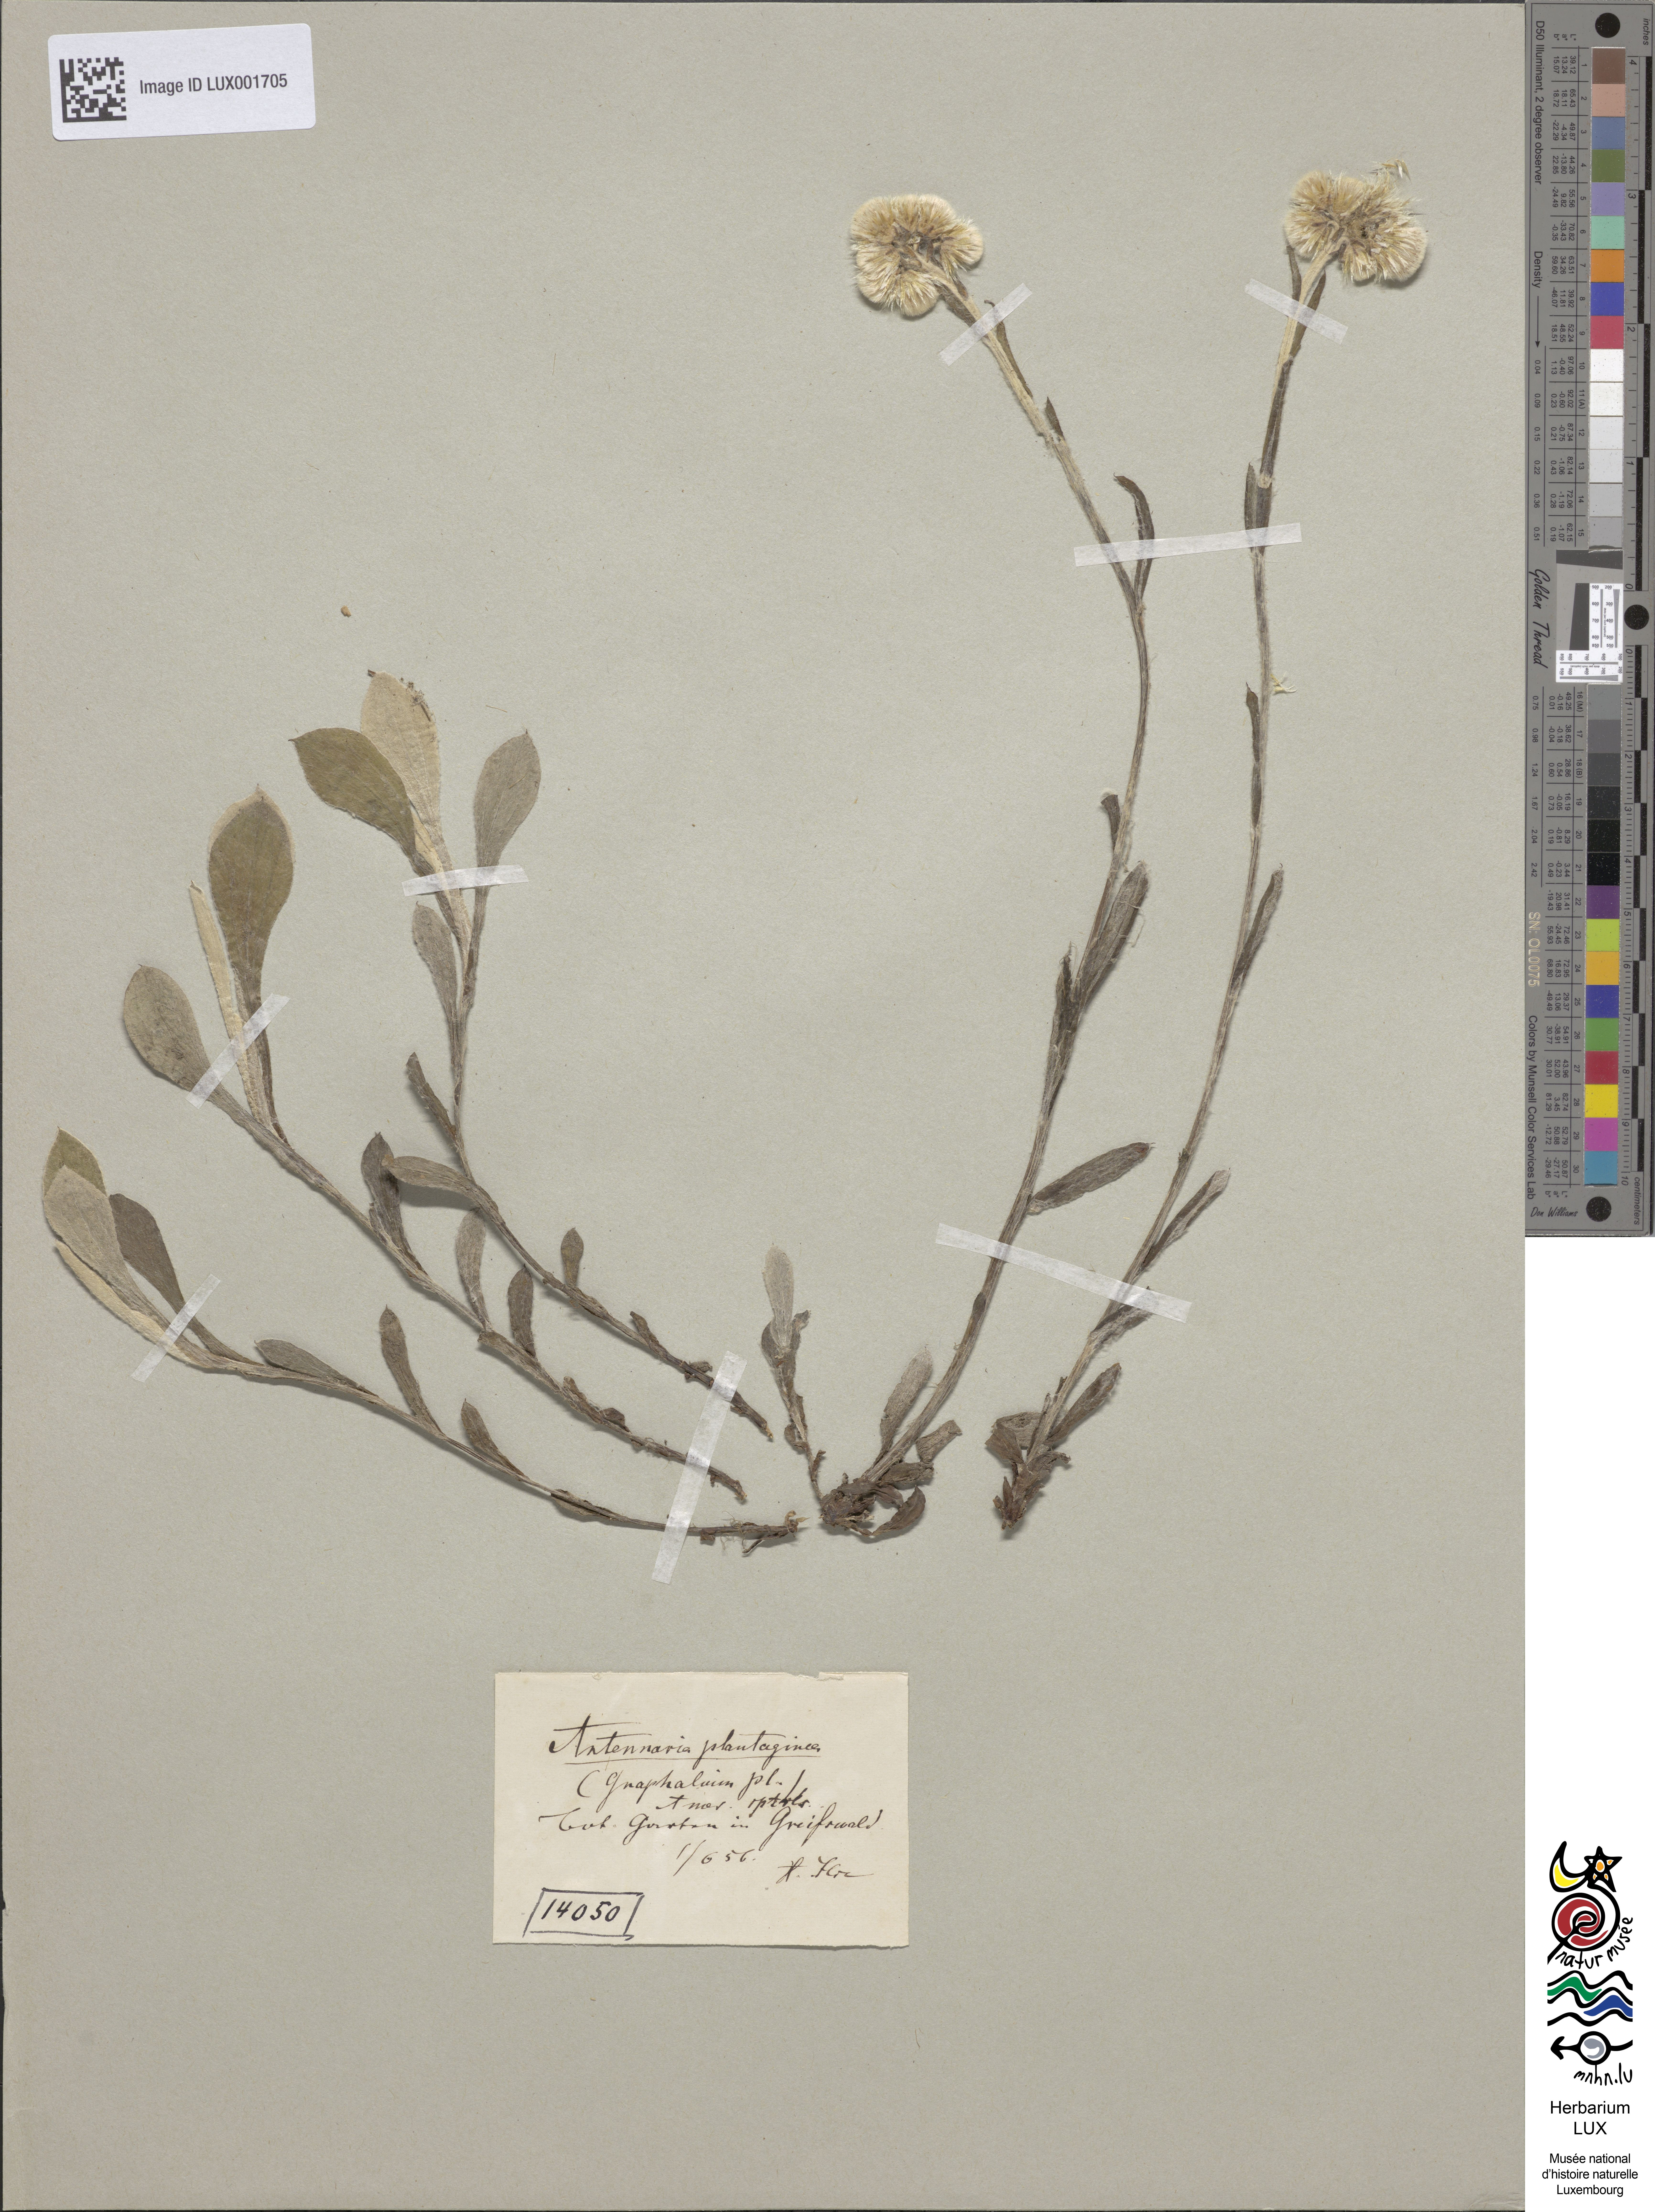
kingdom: Plantae
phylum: Tracheophyta
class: Magnoliopsida
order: Asterales
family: Asteraceae
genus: Antennaria
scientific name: Antennaria plantaginea
